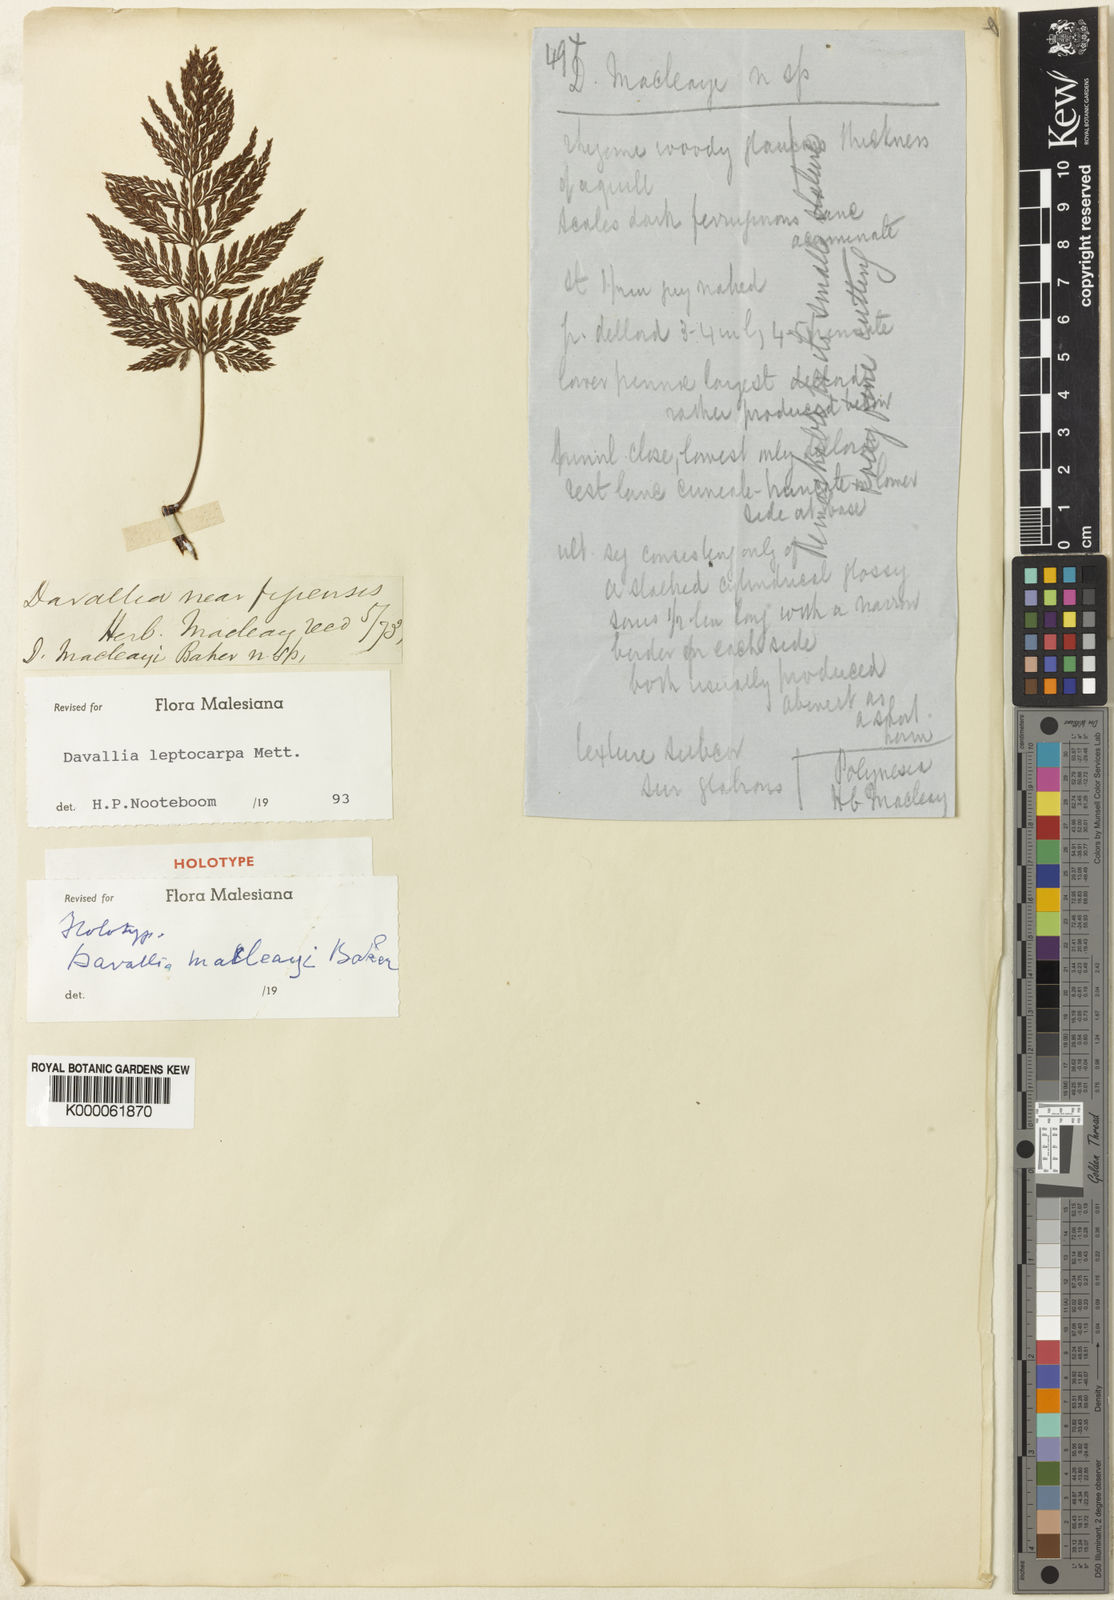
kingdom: Plantae
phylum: Tracheophyta
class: Polypodiopsida
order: Polypodiales
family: Davalliaceae
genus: Davallia
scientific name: Davallia leptocarpa
